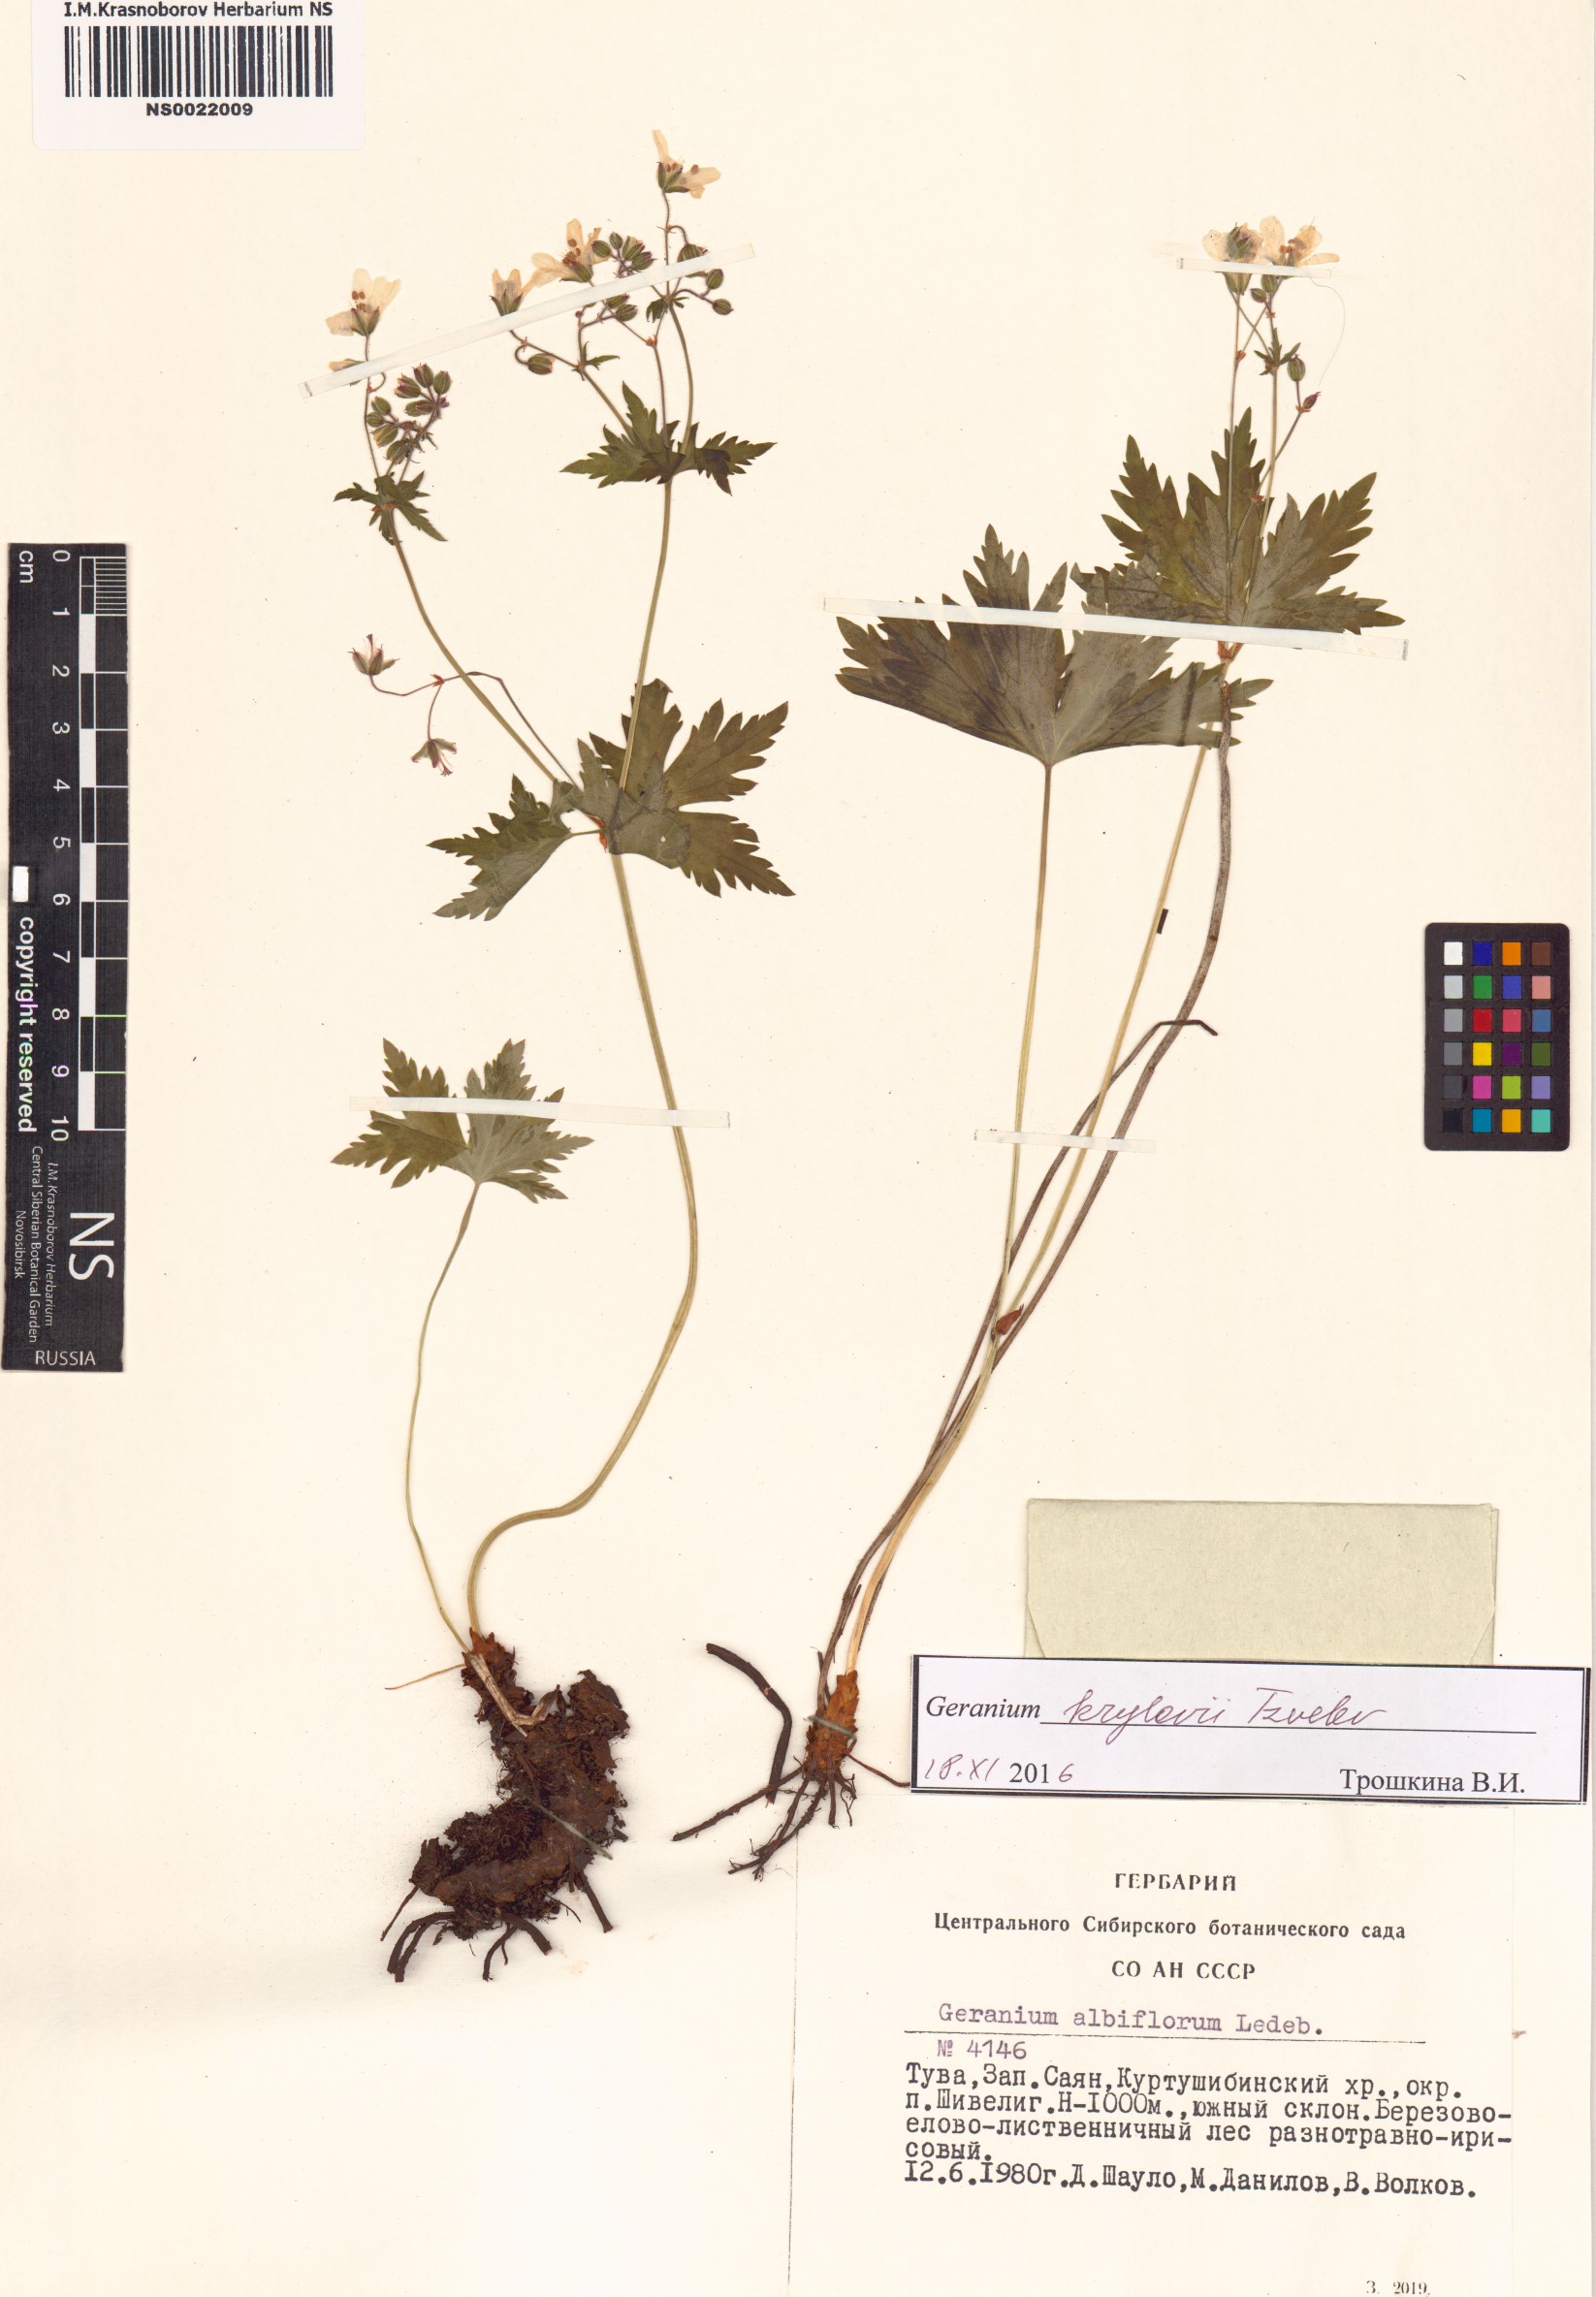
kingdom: Plantae
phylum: Tracheophyta
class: Magnoliopsida
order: Geraniales
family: Geraniaceae
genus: Geranium
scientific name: Geranium sylvaticum
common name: Wood crane's-bill
